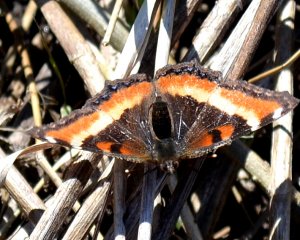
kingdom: Animalia
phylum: Arthropoda
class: Insecta
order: Lepidoptera
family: Nymphalidae
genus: Aglais
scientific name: Aglais milberti
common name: Milbert's Tortoiseshell
